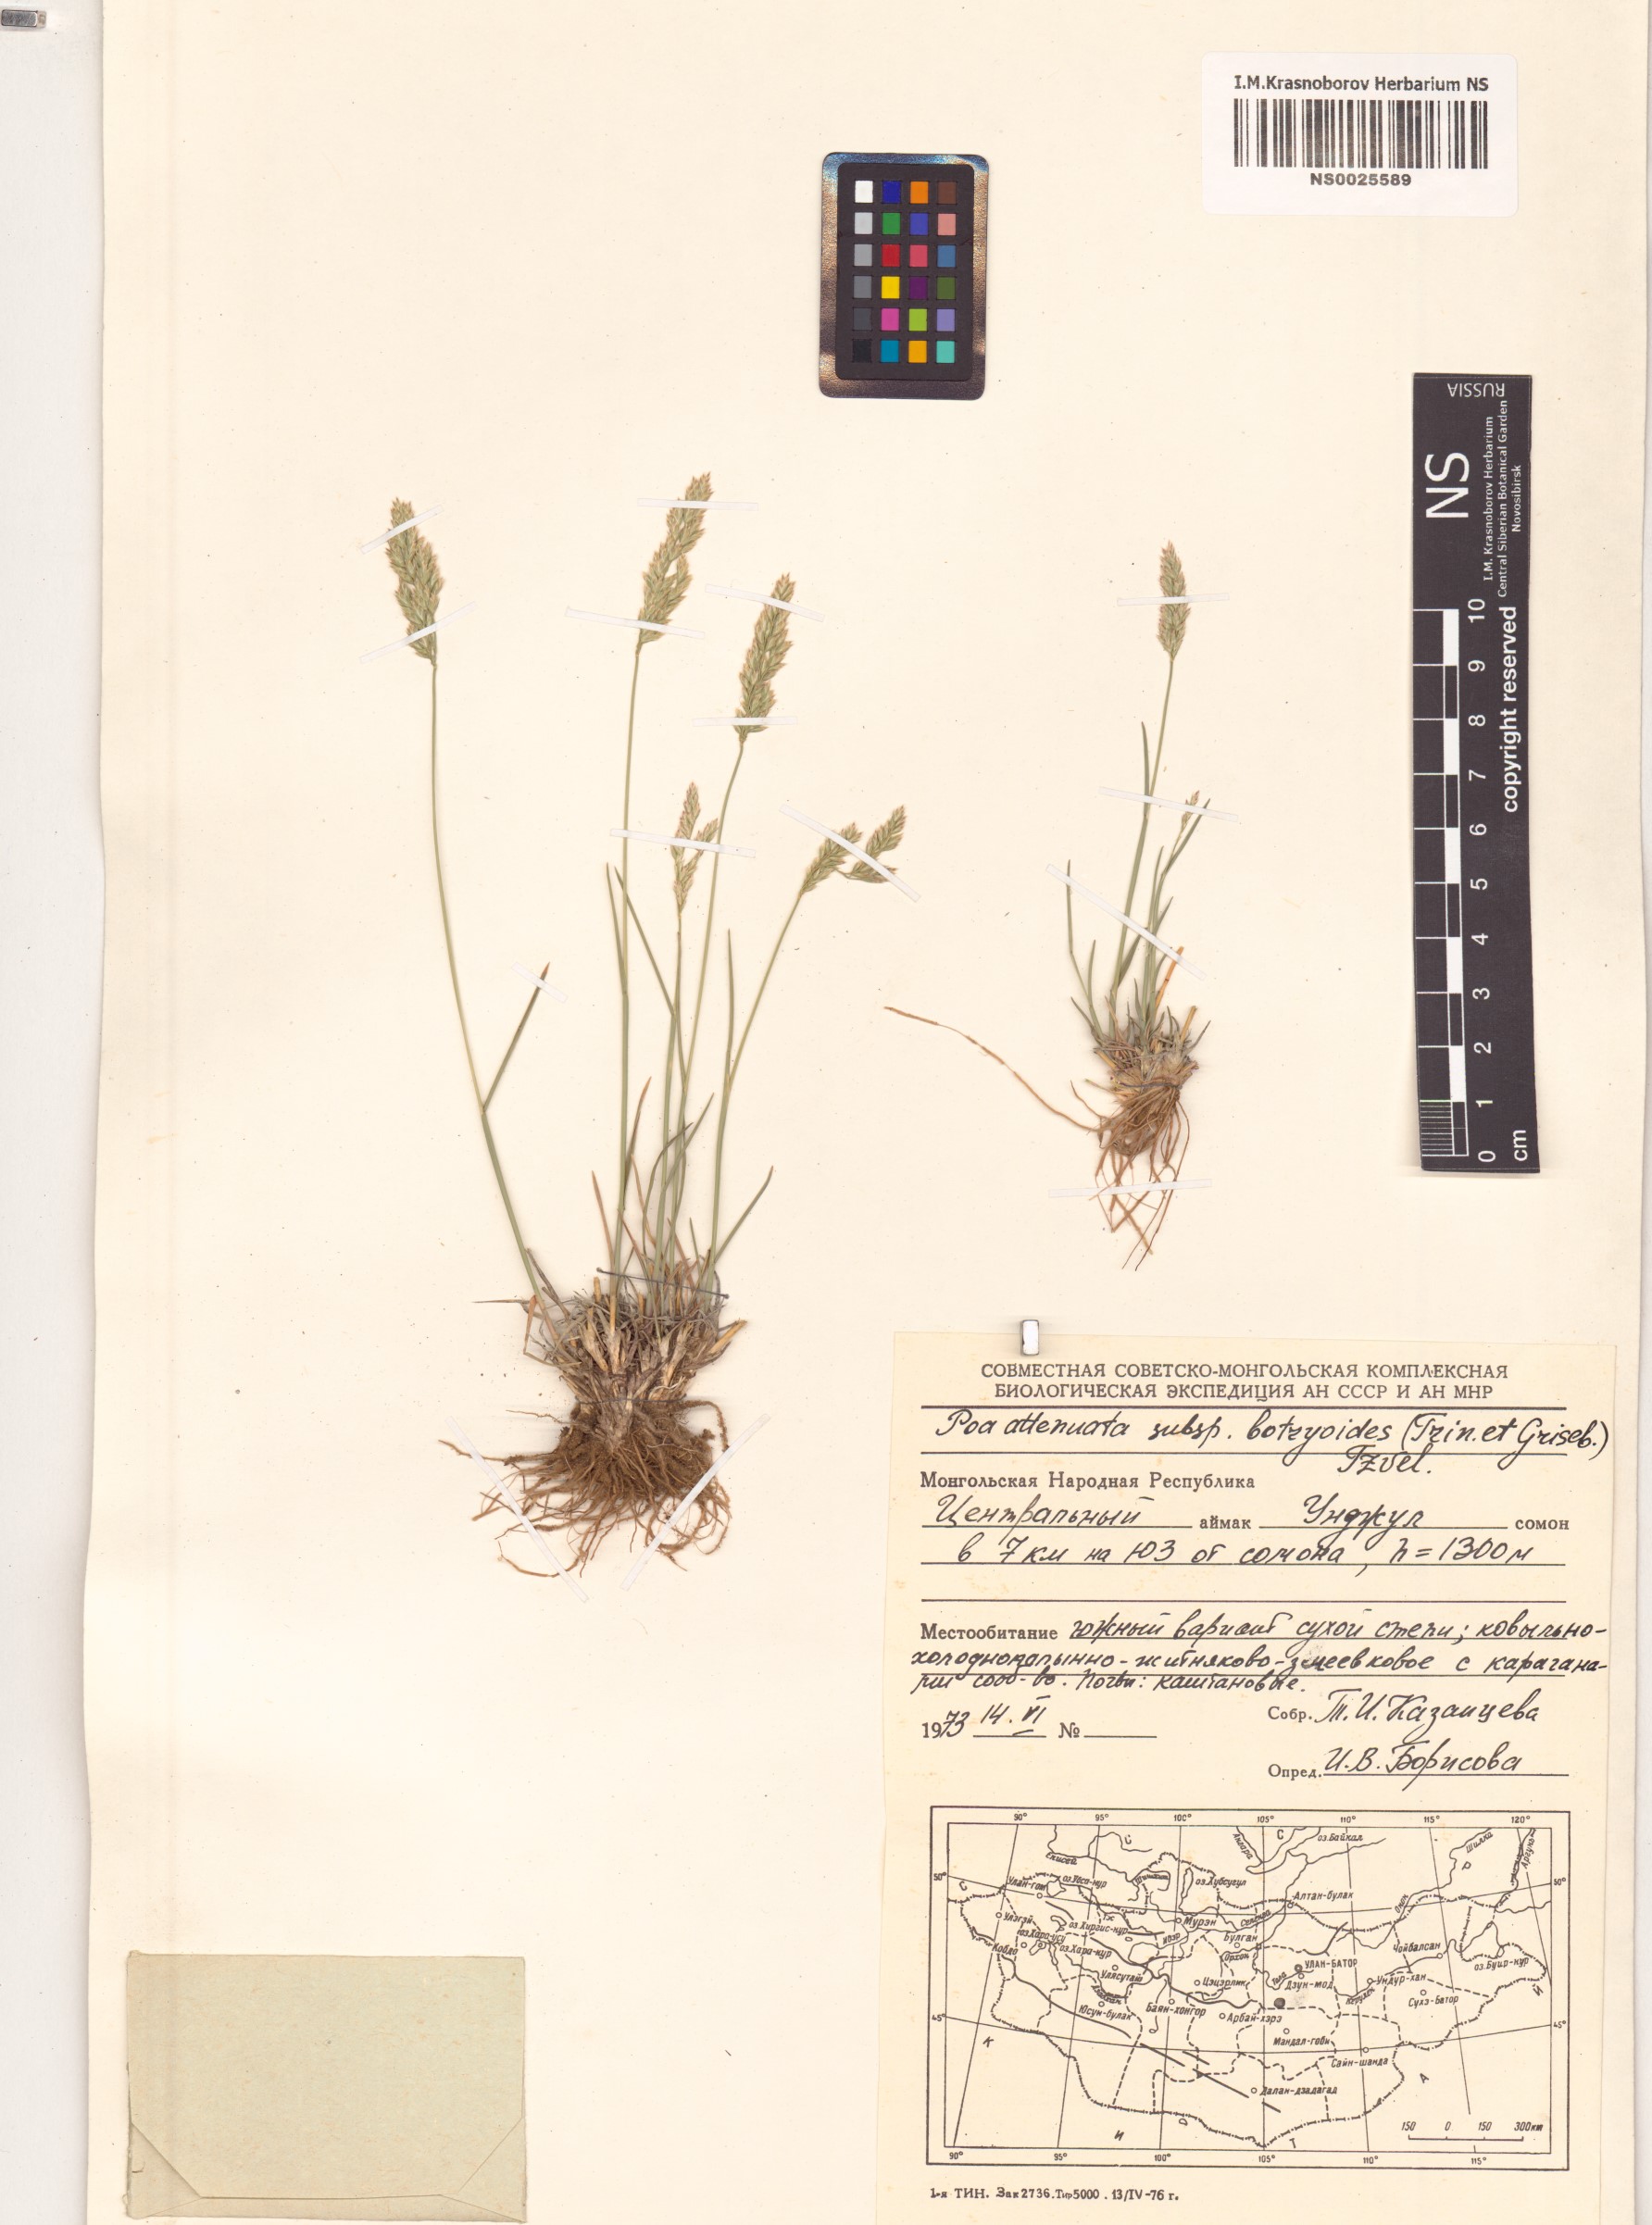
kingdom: Plantae
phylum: Tracheophyta
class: Liliopsida
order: Poales
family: Poaceae
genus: Poa
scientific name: Poa attenuata
